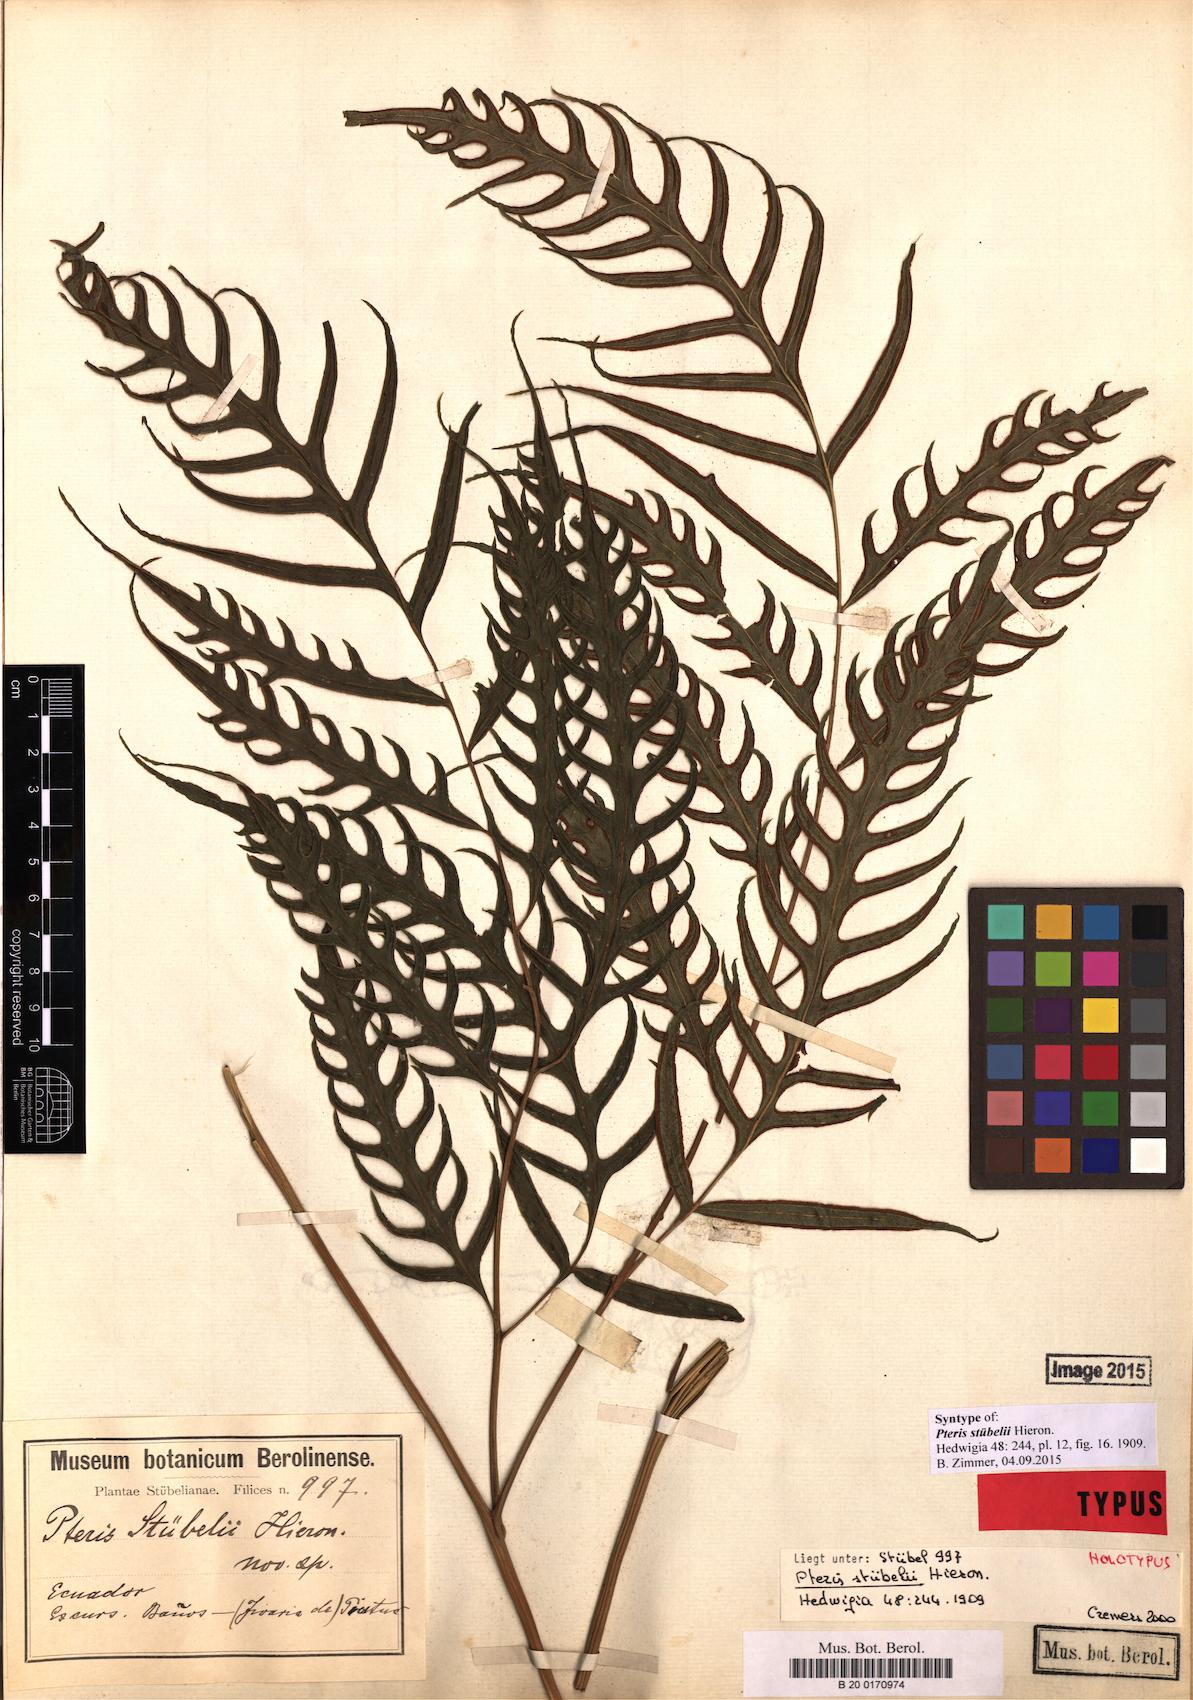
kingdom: Plantae
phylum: Tracheophyta
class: Polypodiopsida
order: Polypodiales
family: Pteridaceae
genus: Pteris
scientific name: Pteris stuebelii
